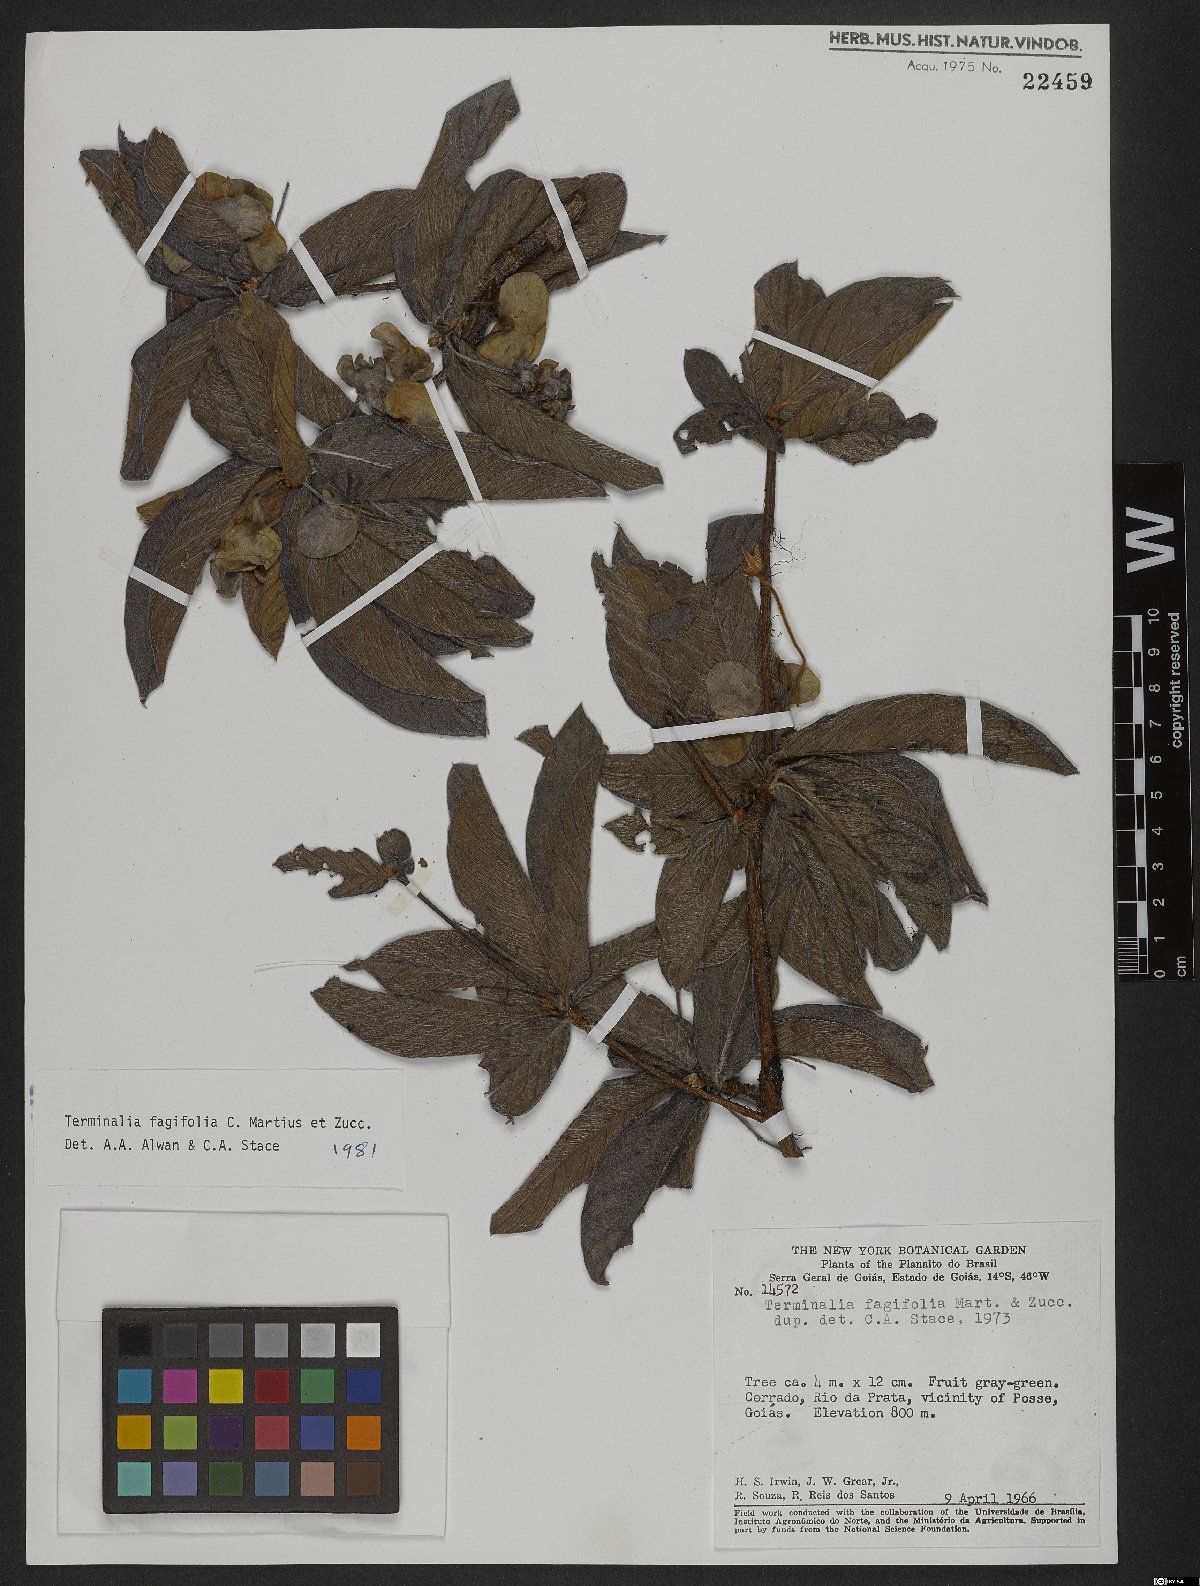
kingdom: Plantae
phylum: Tracheophyta
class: Magnoliopsida
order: Myrtales
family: Combretaceae
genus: Terminalia
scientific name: Terminalia fagifolia
